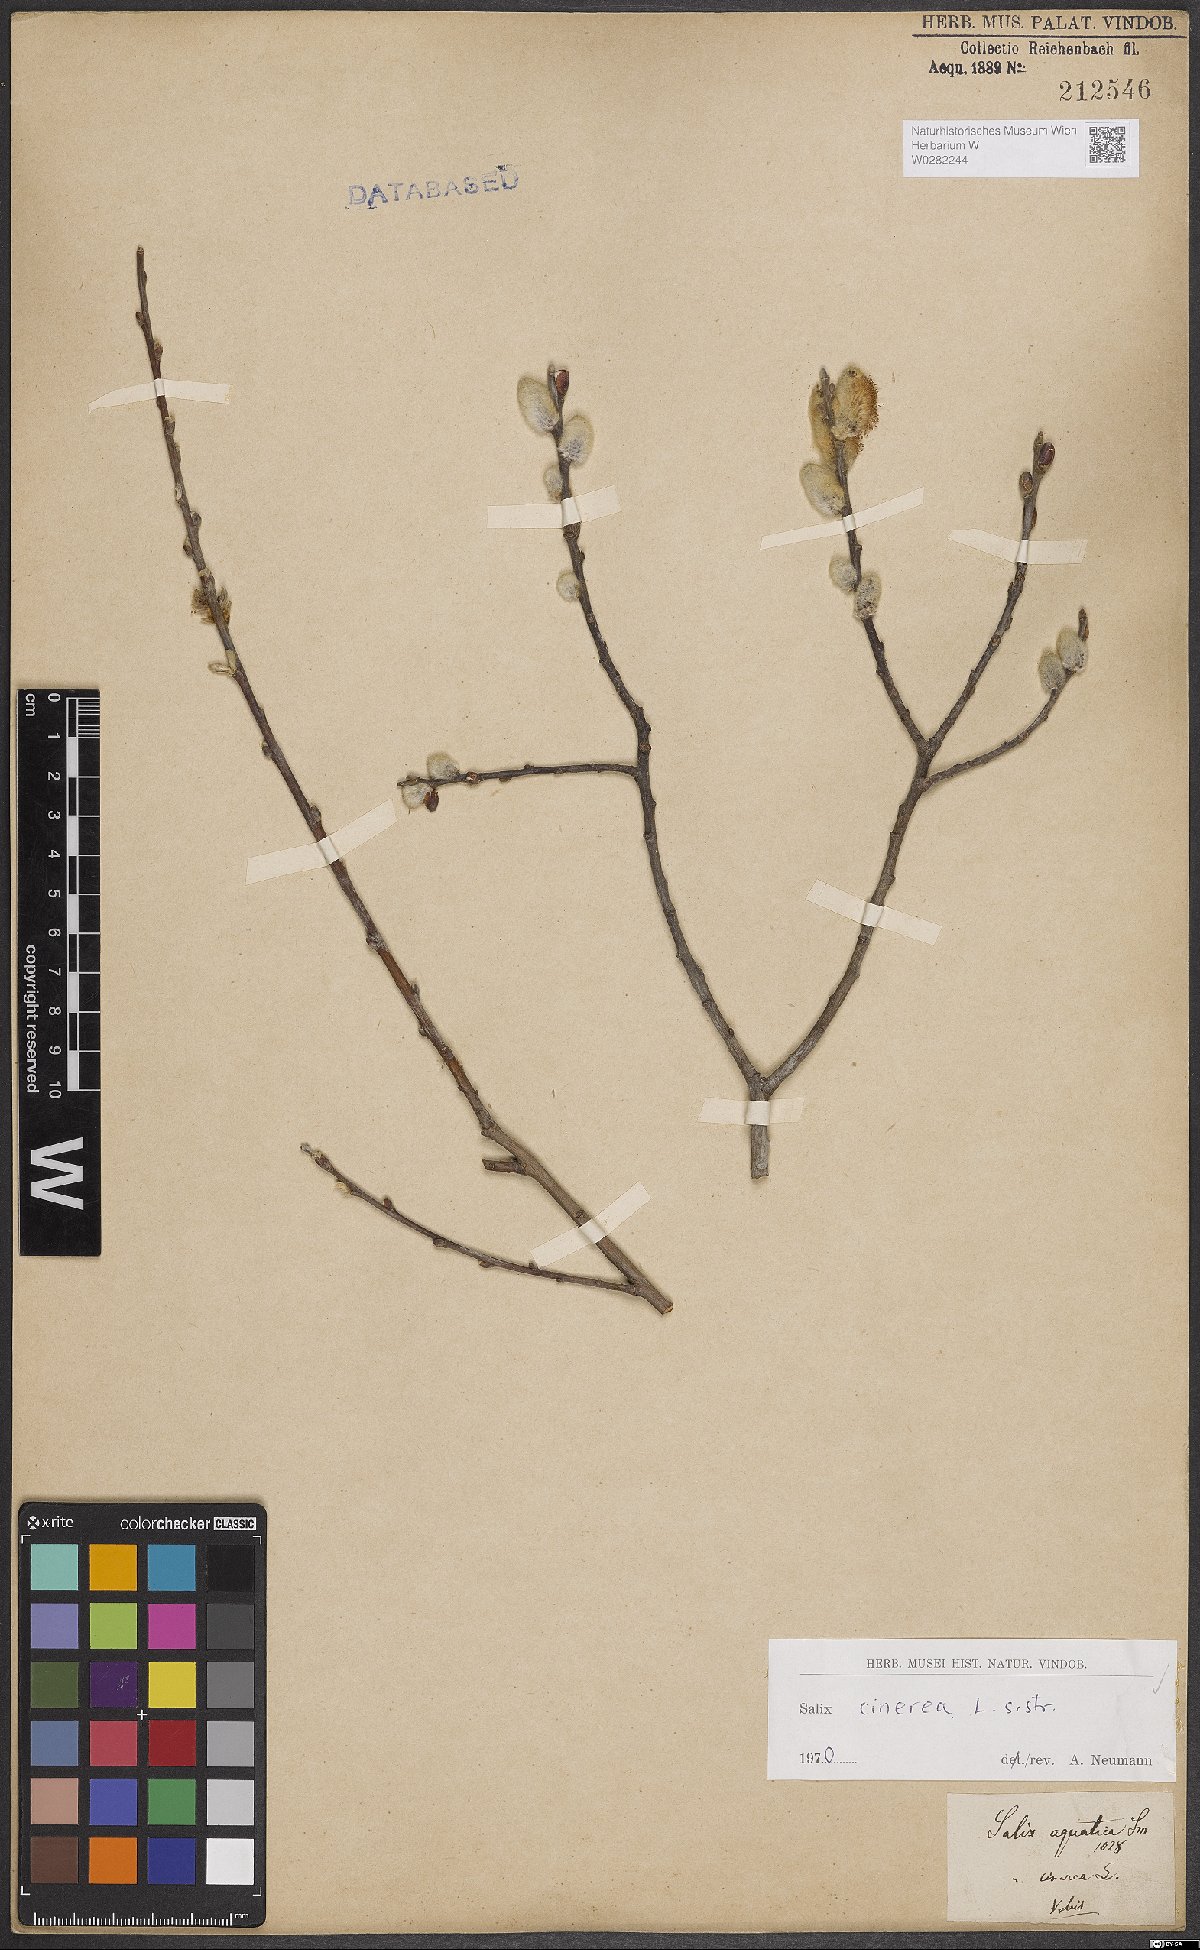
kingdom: Plantae
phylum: Tracheophyta
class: Magnoliopsida
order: Malpighiales
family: Salicaceae
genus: Salix
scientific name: Salix cinerea
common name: Common sallow
